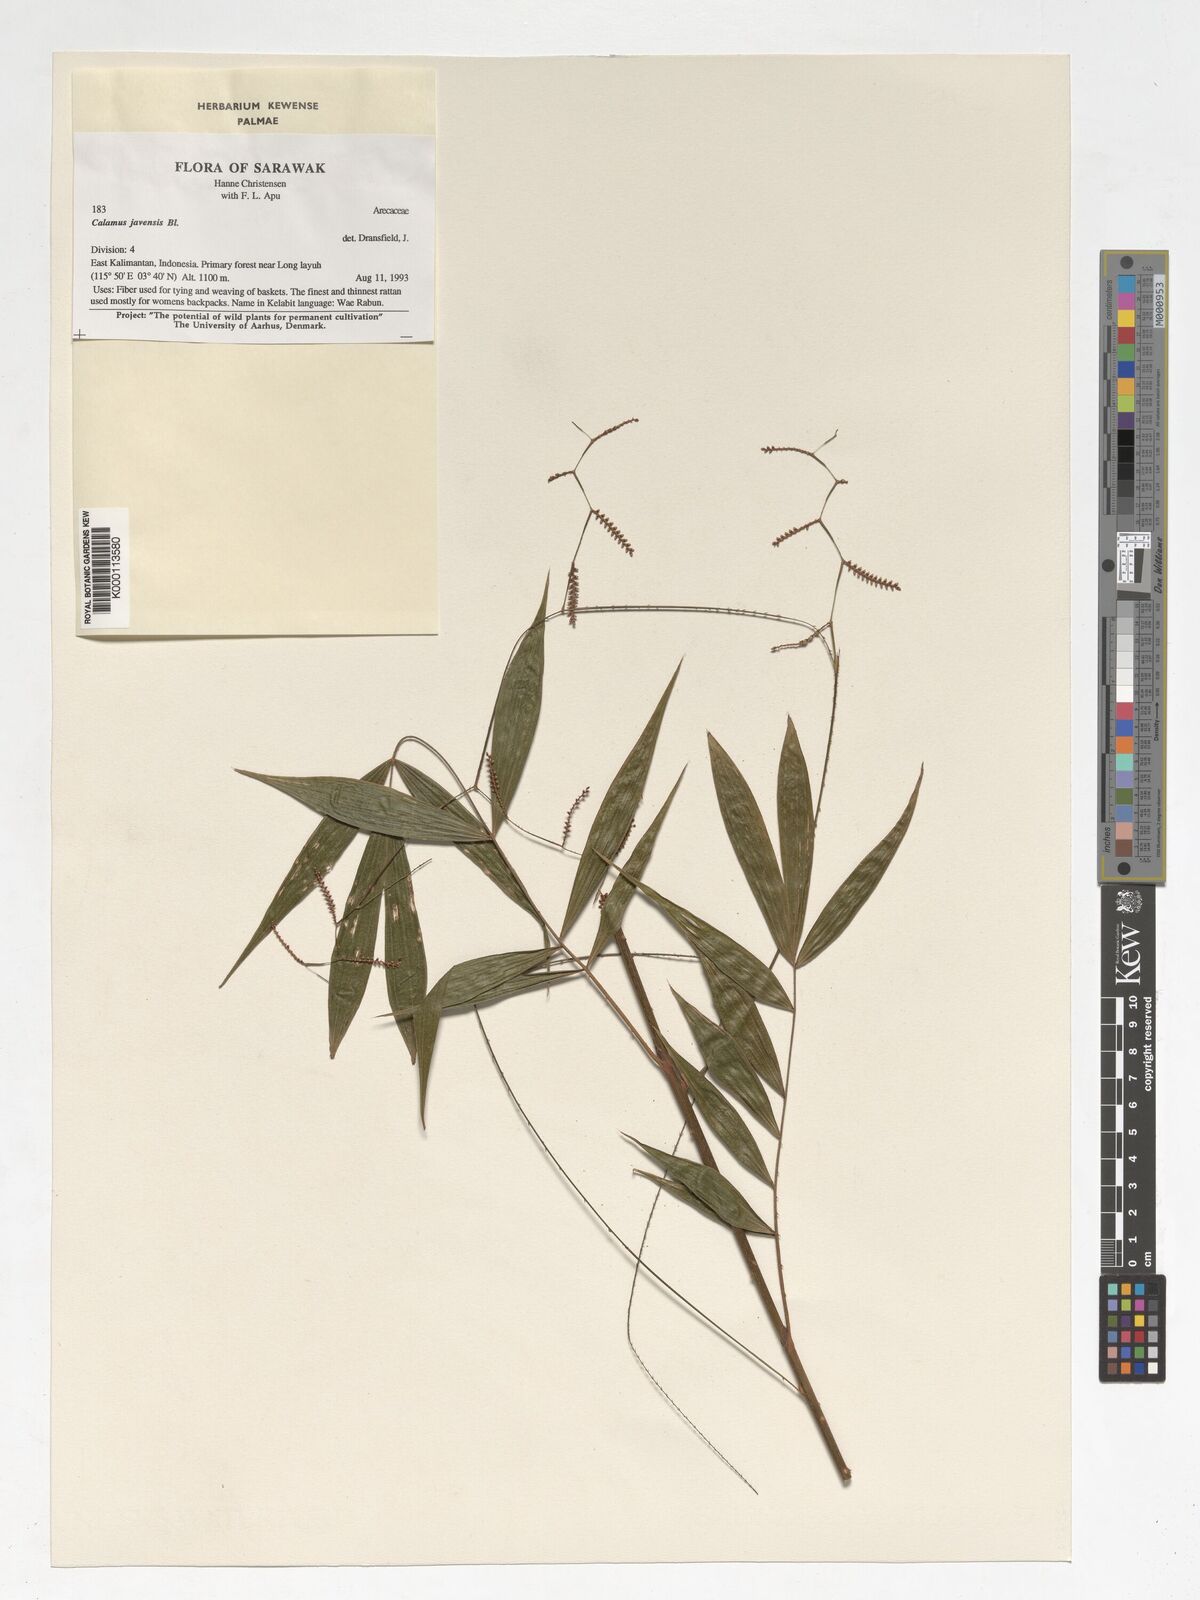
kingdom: Plantae
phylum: Tracheophyta
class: Liliopsida
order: Arecales
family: Arecaceae
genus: Calamus
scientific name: Calamus javensis
